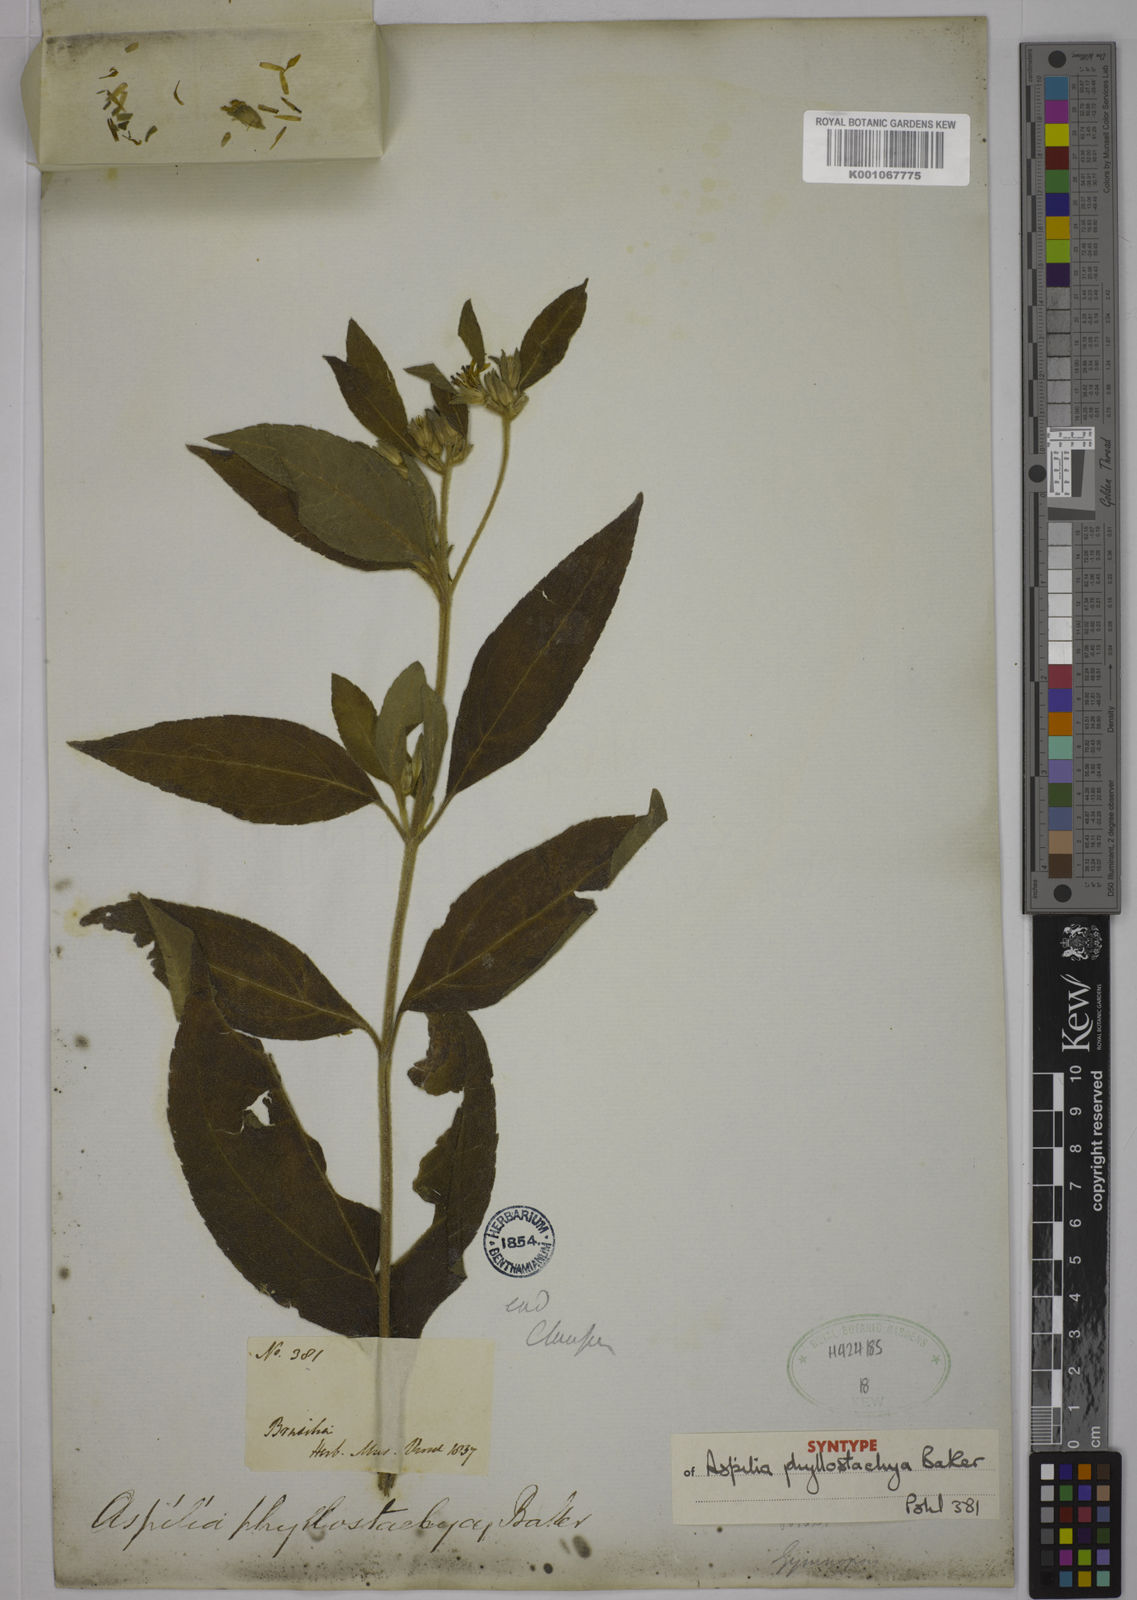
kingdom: Plantae
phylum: Tracheophyta
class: Magnoliopsida
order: Asterales
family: Asteraceae
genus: Wedelia
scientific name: Wedelia phyllostachya
